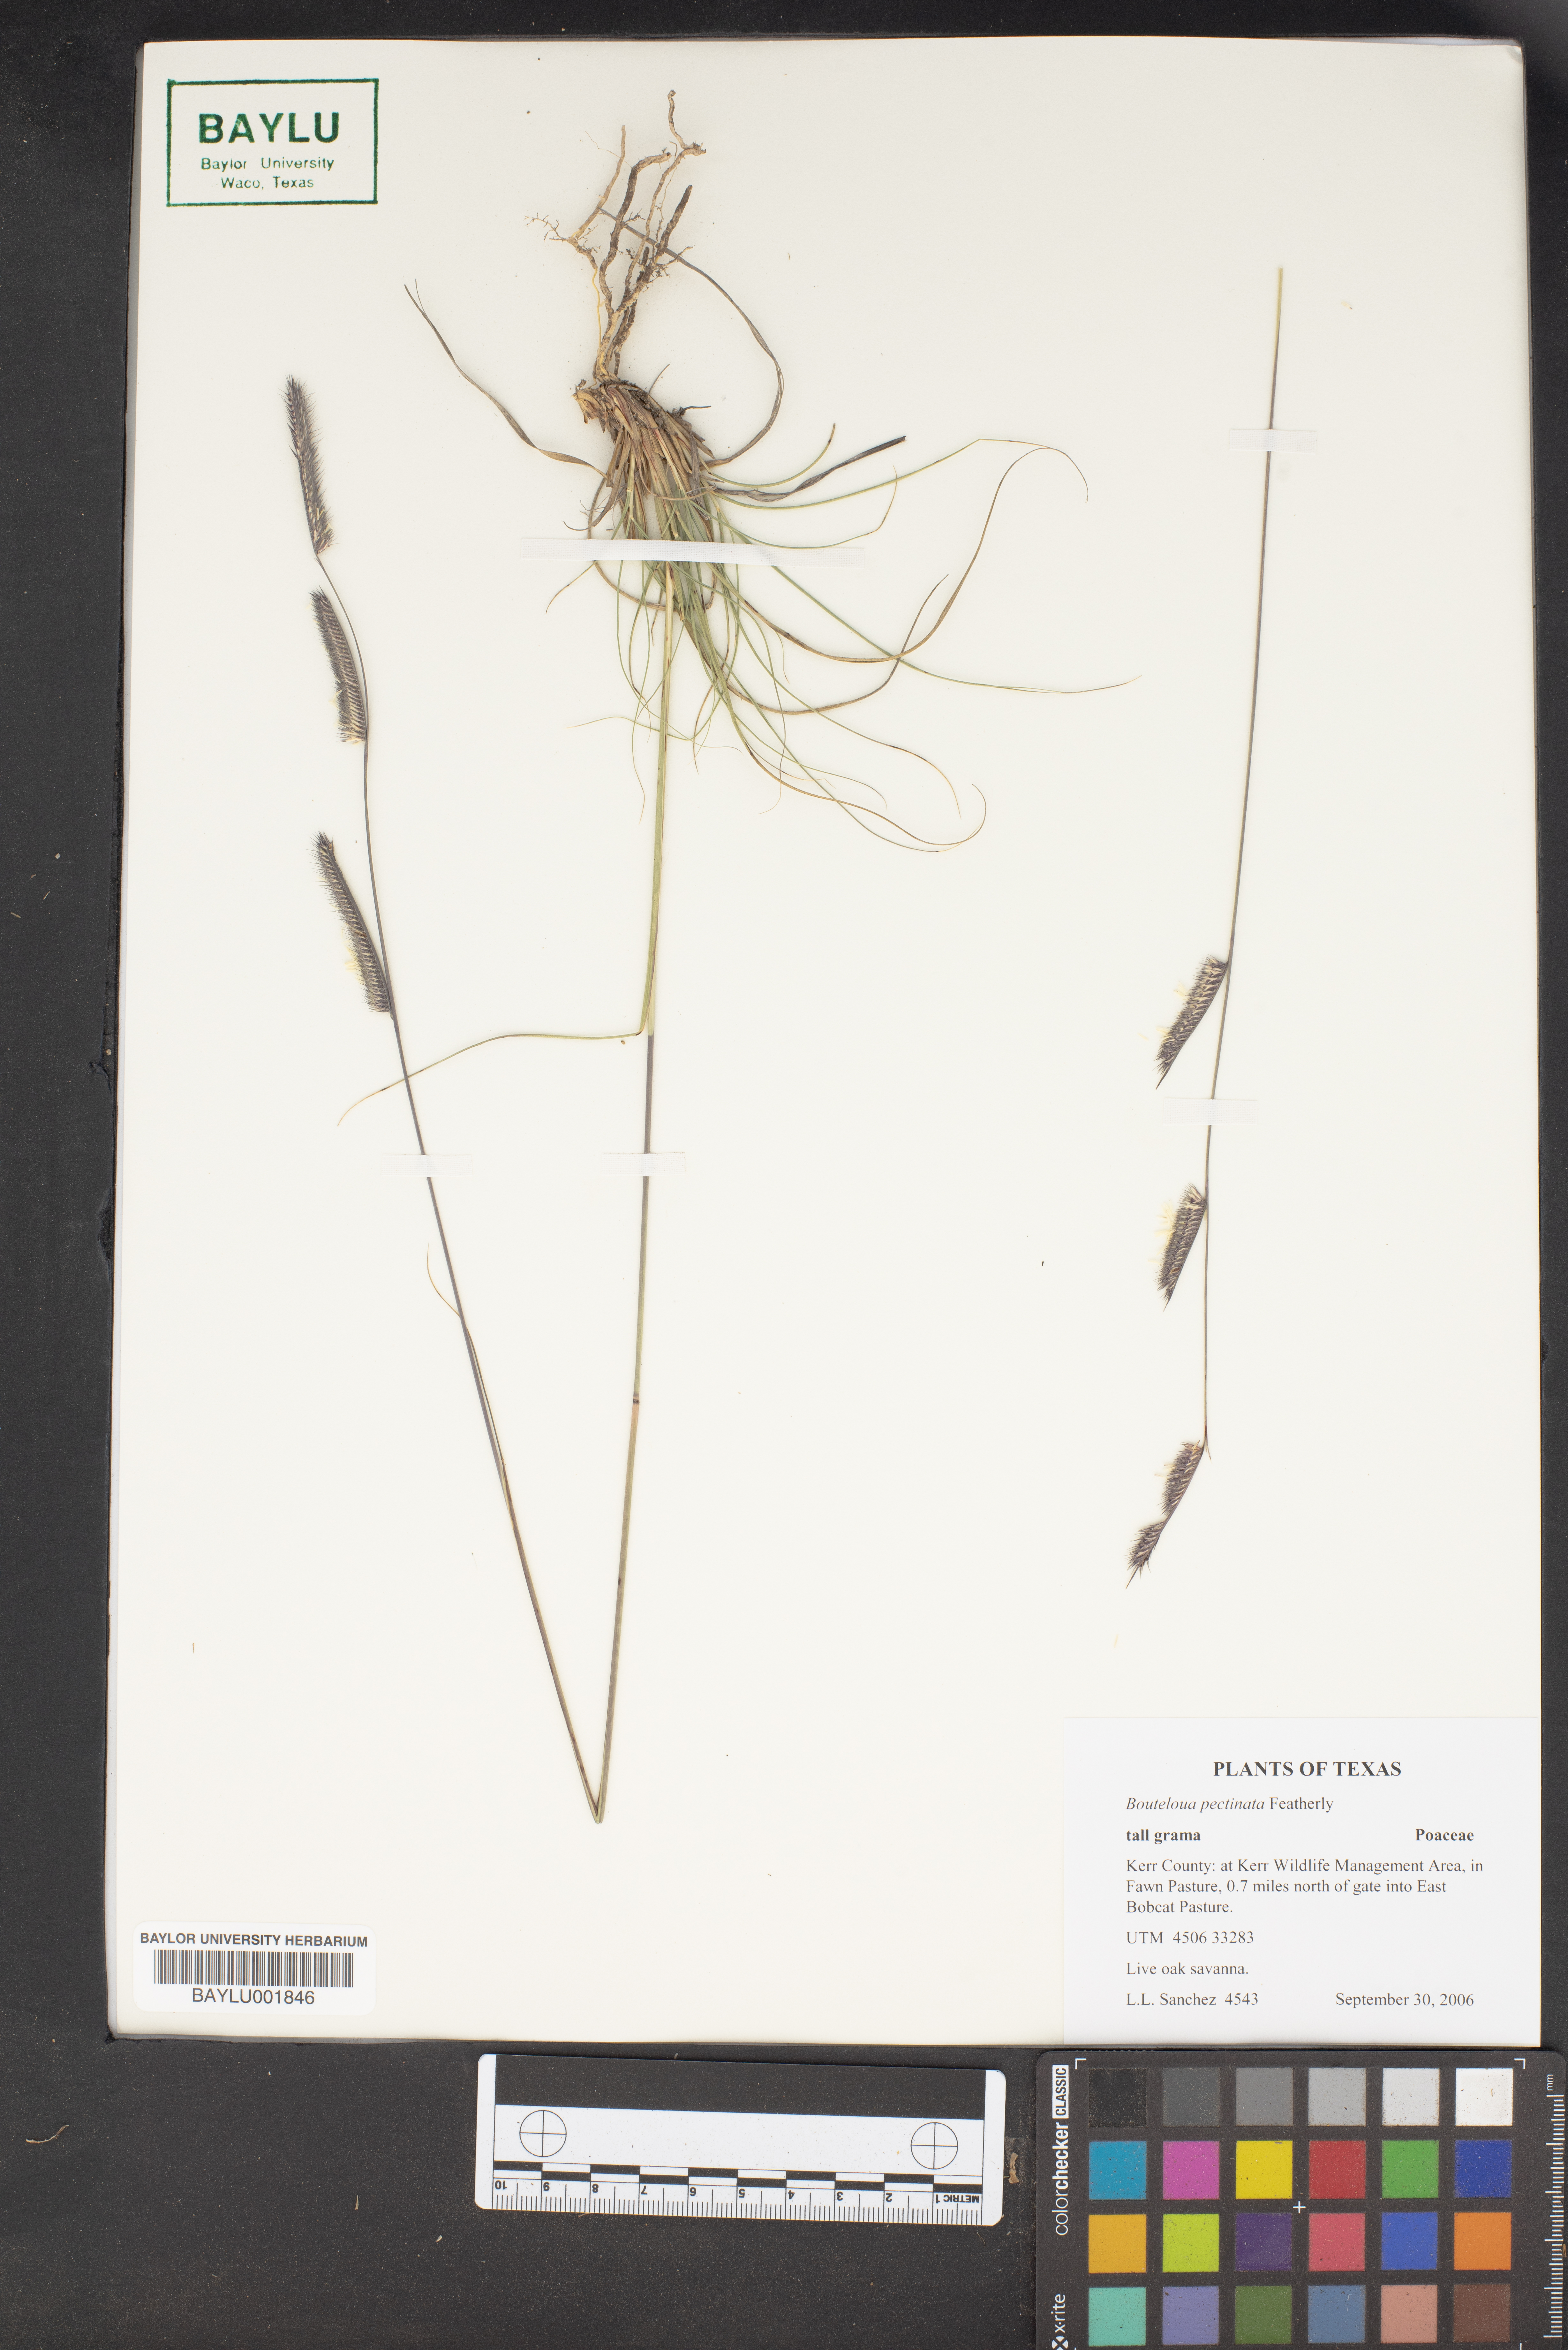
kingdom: Plantae
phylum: Tracheophyta
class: Liliopsida
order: Poales
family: Poaceae
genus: Bouteloua
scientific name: Bouteloua pectinata
